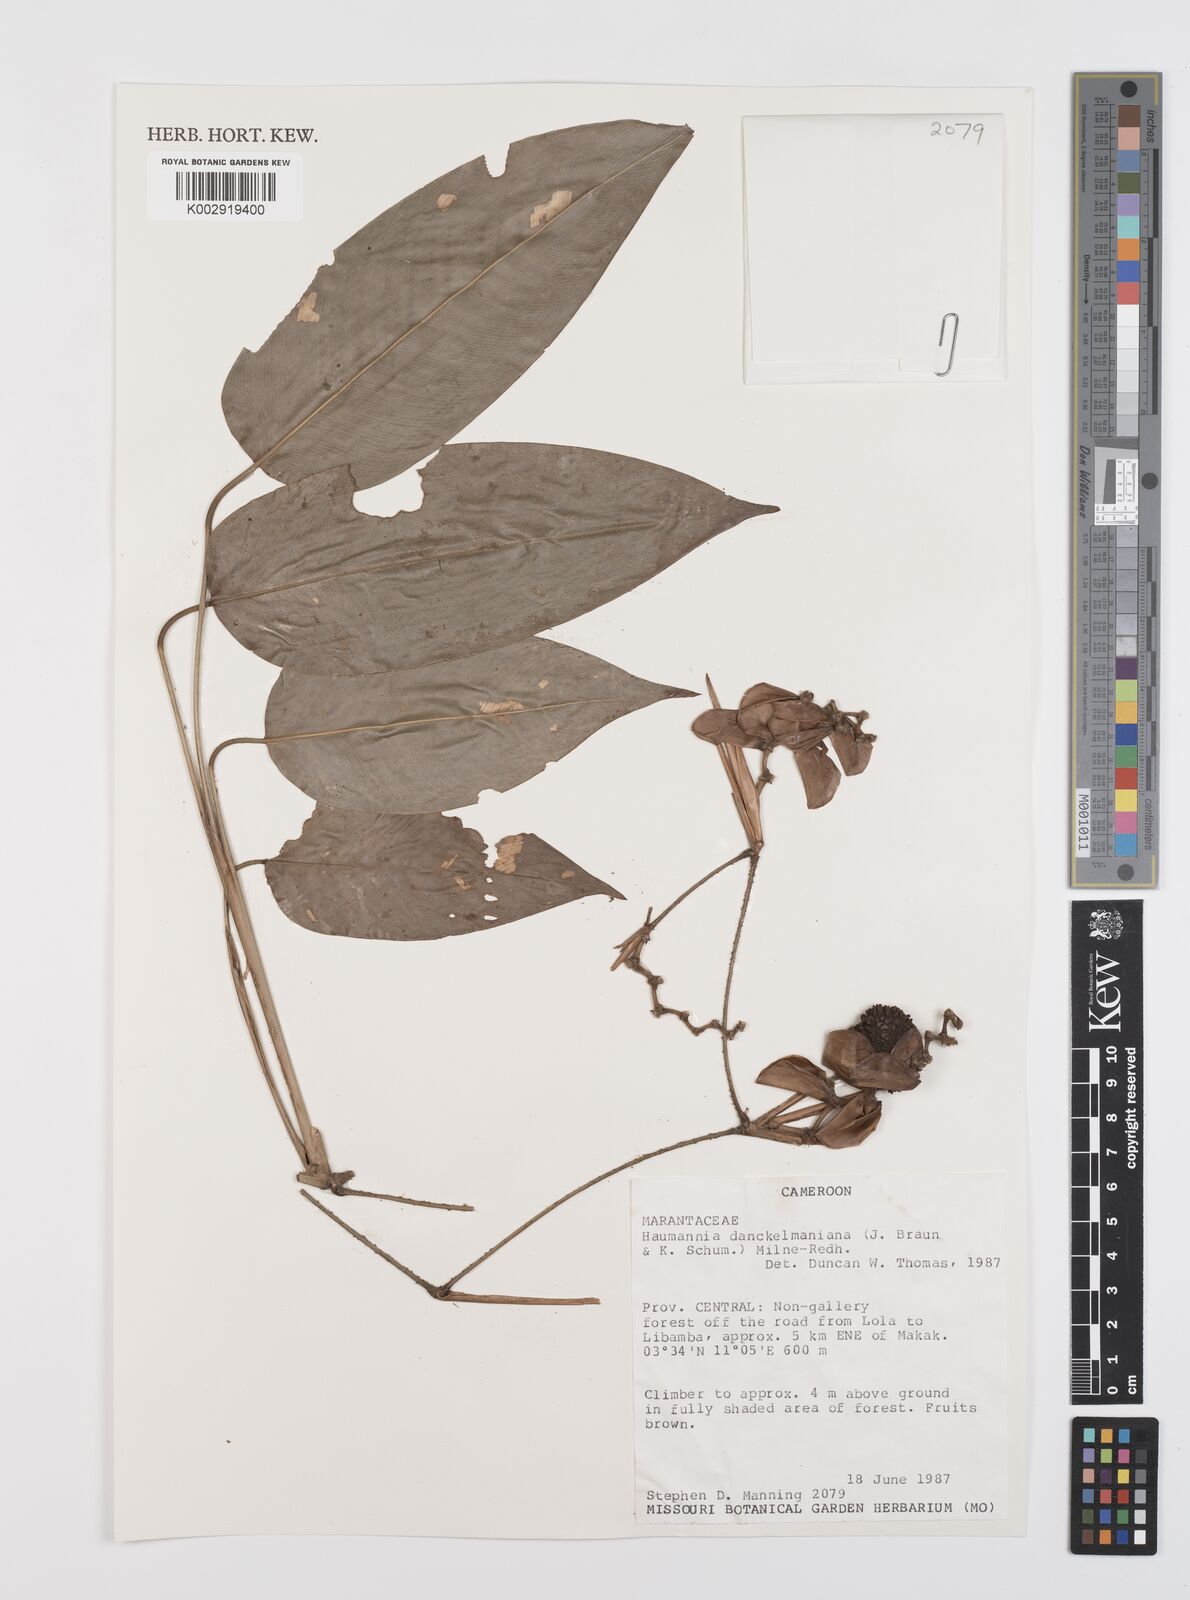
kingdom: Plantae
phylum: Tracheophyta
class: Liliopsida
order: Zingiberales
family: Marantaceae
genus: Haumania
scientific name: Haumania danckelmaniana
